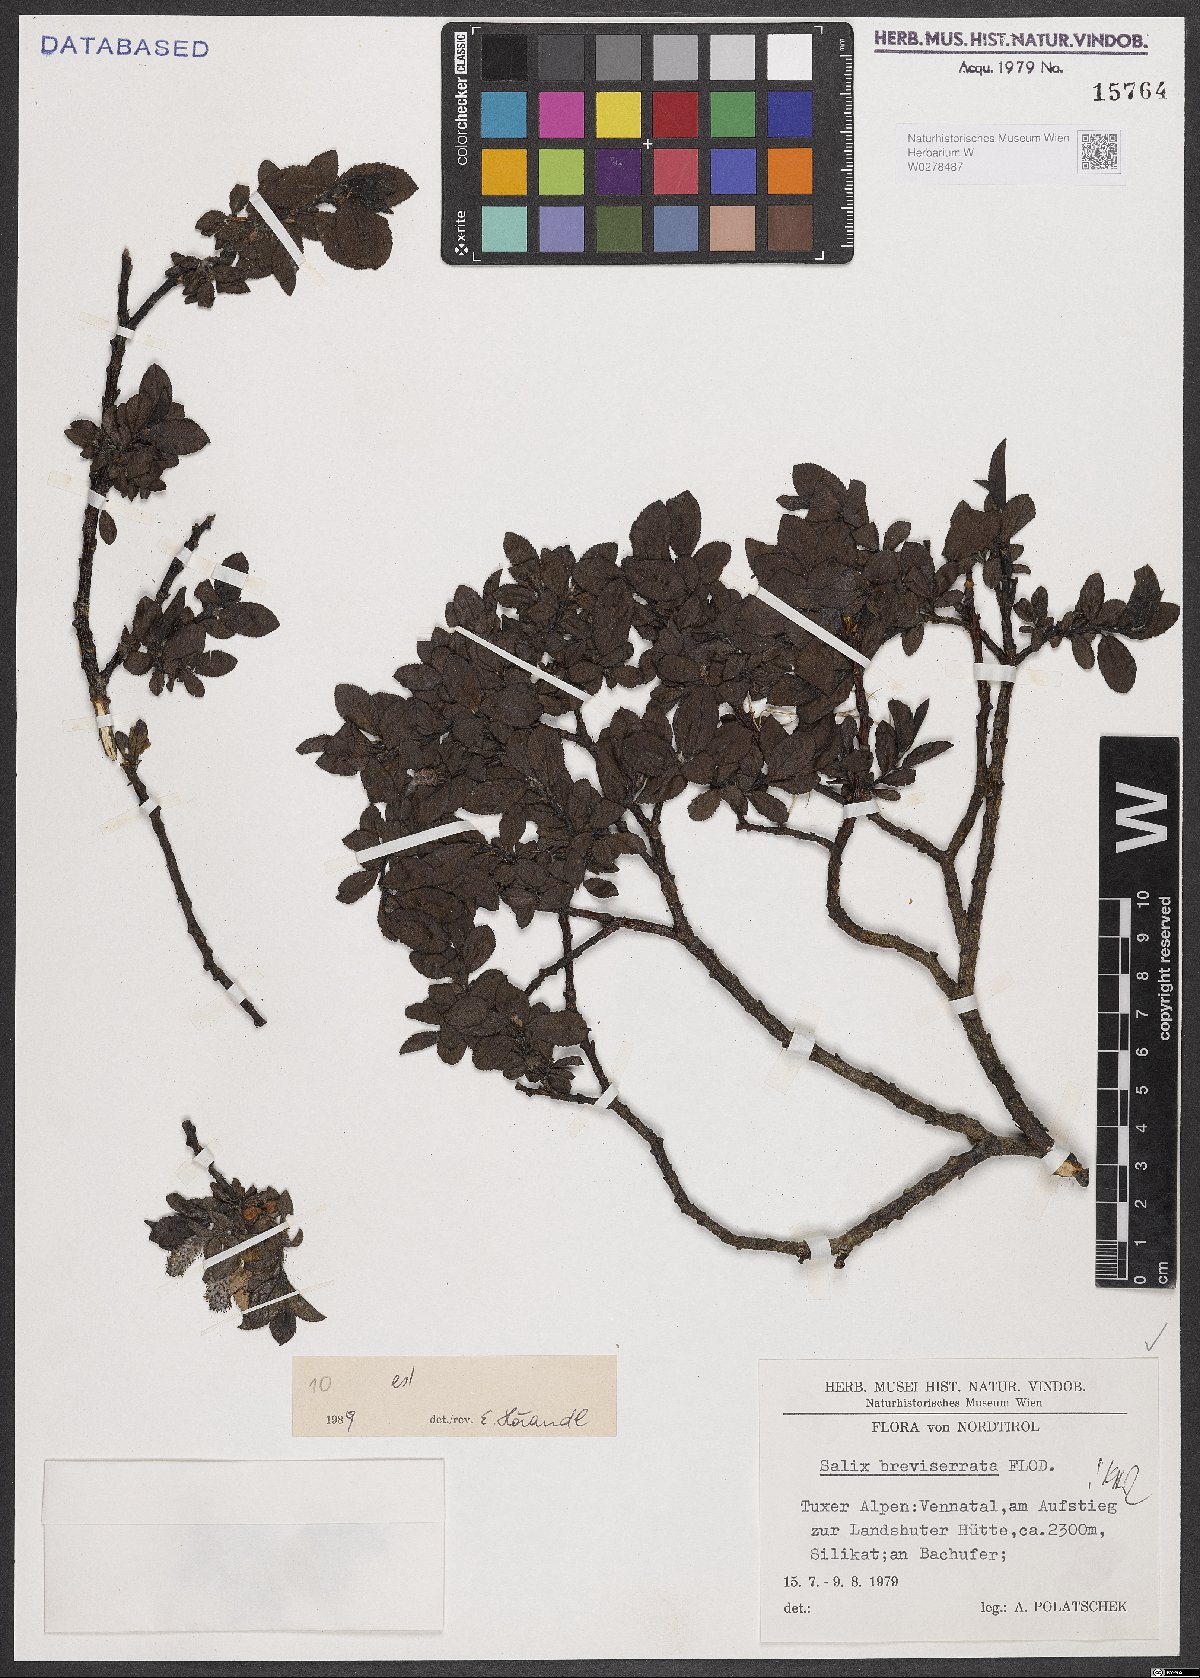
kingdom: Plantae
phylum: Tracheophyta
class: Magnoliopsida
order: Malpighiales
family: Salicaceae
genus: Salix
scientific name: Salix breviserrata
